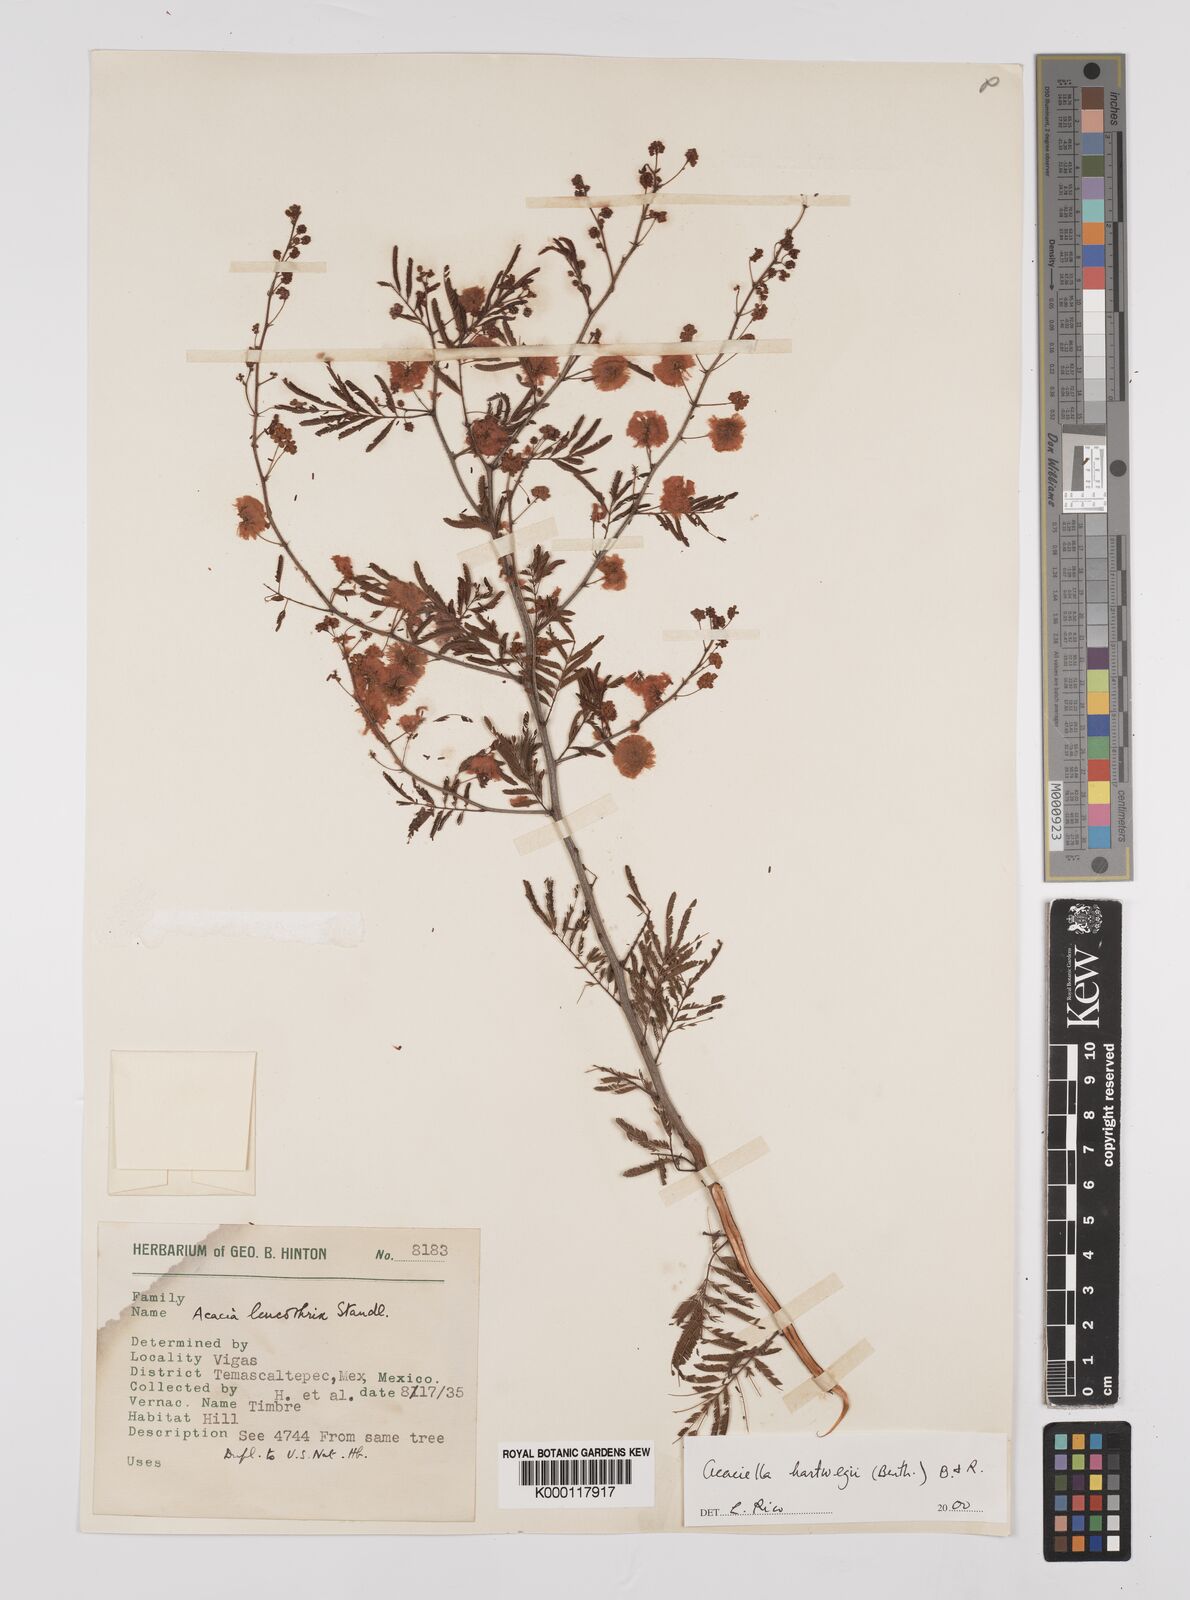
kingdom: Plantae
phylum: Tracheophyta
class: Magnoliopsida
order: Fabales
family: Fabaceae
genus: Acaciella
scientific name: Acaciella hartwegii
